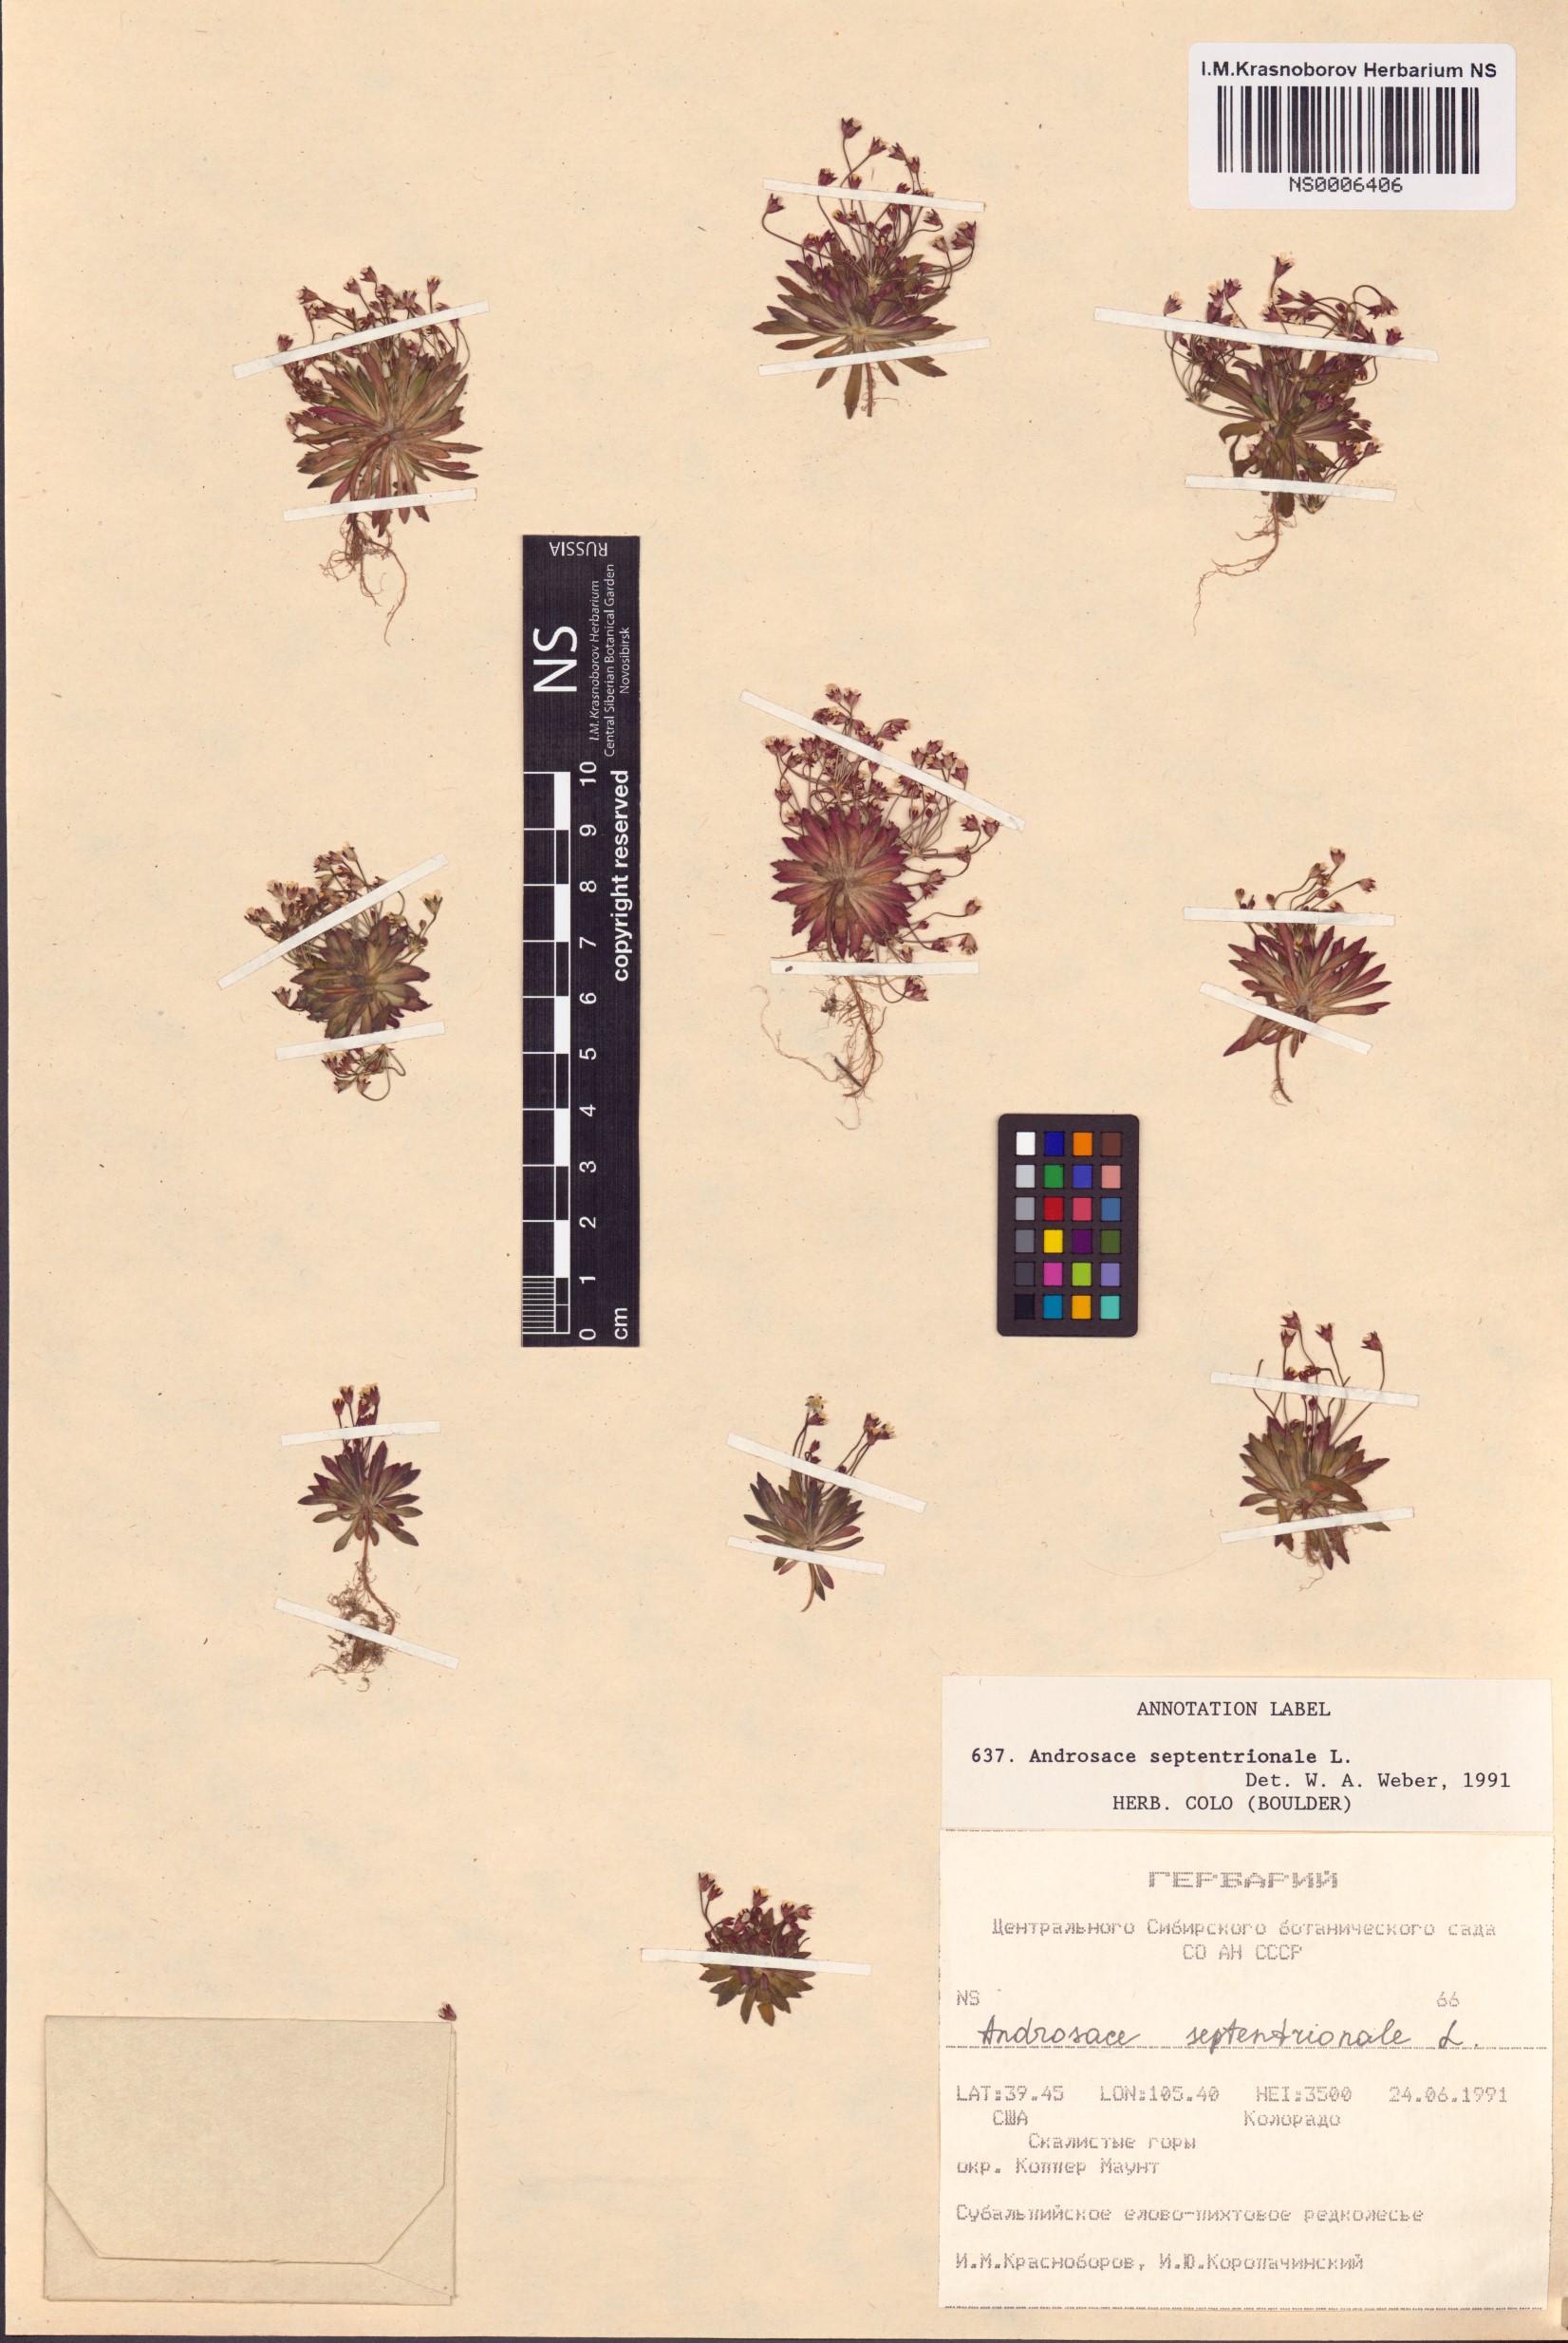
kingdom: Plantae
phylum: Tracheophyta
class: Magnoliopsida
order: Ericales
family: Primulaceae
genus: Androsace
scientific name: Androsace septentrionalis
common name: Hairy northern fairy-candelabra
